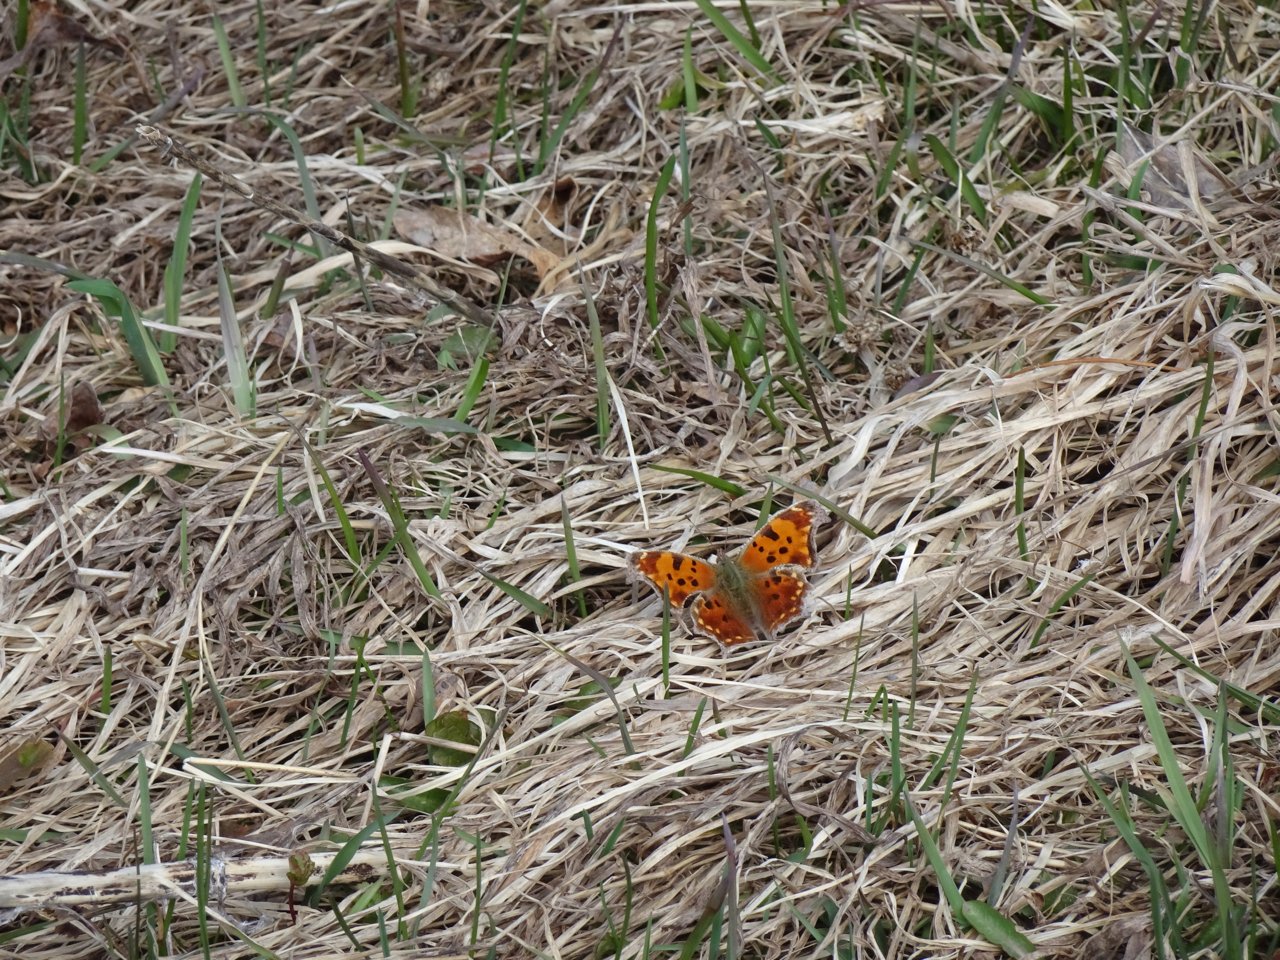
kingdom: Animalia
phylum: Arthropoda
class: Insecta
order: Lepidoptera
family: Nymphalidae
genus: Polygonia
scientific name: Polygonia comma
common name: Eastern Comma
